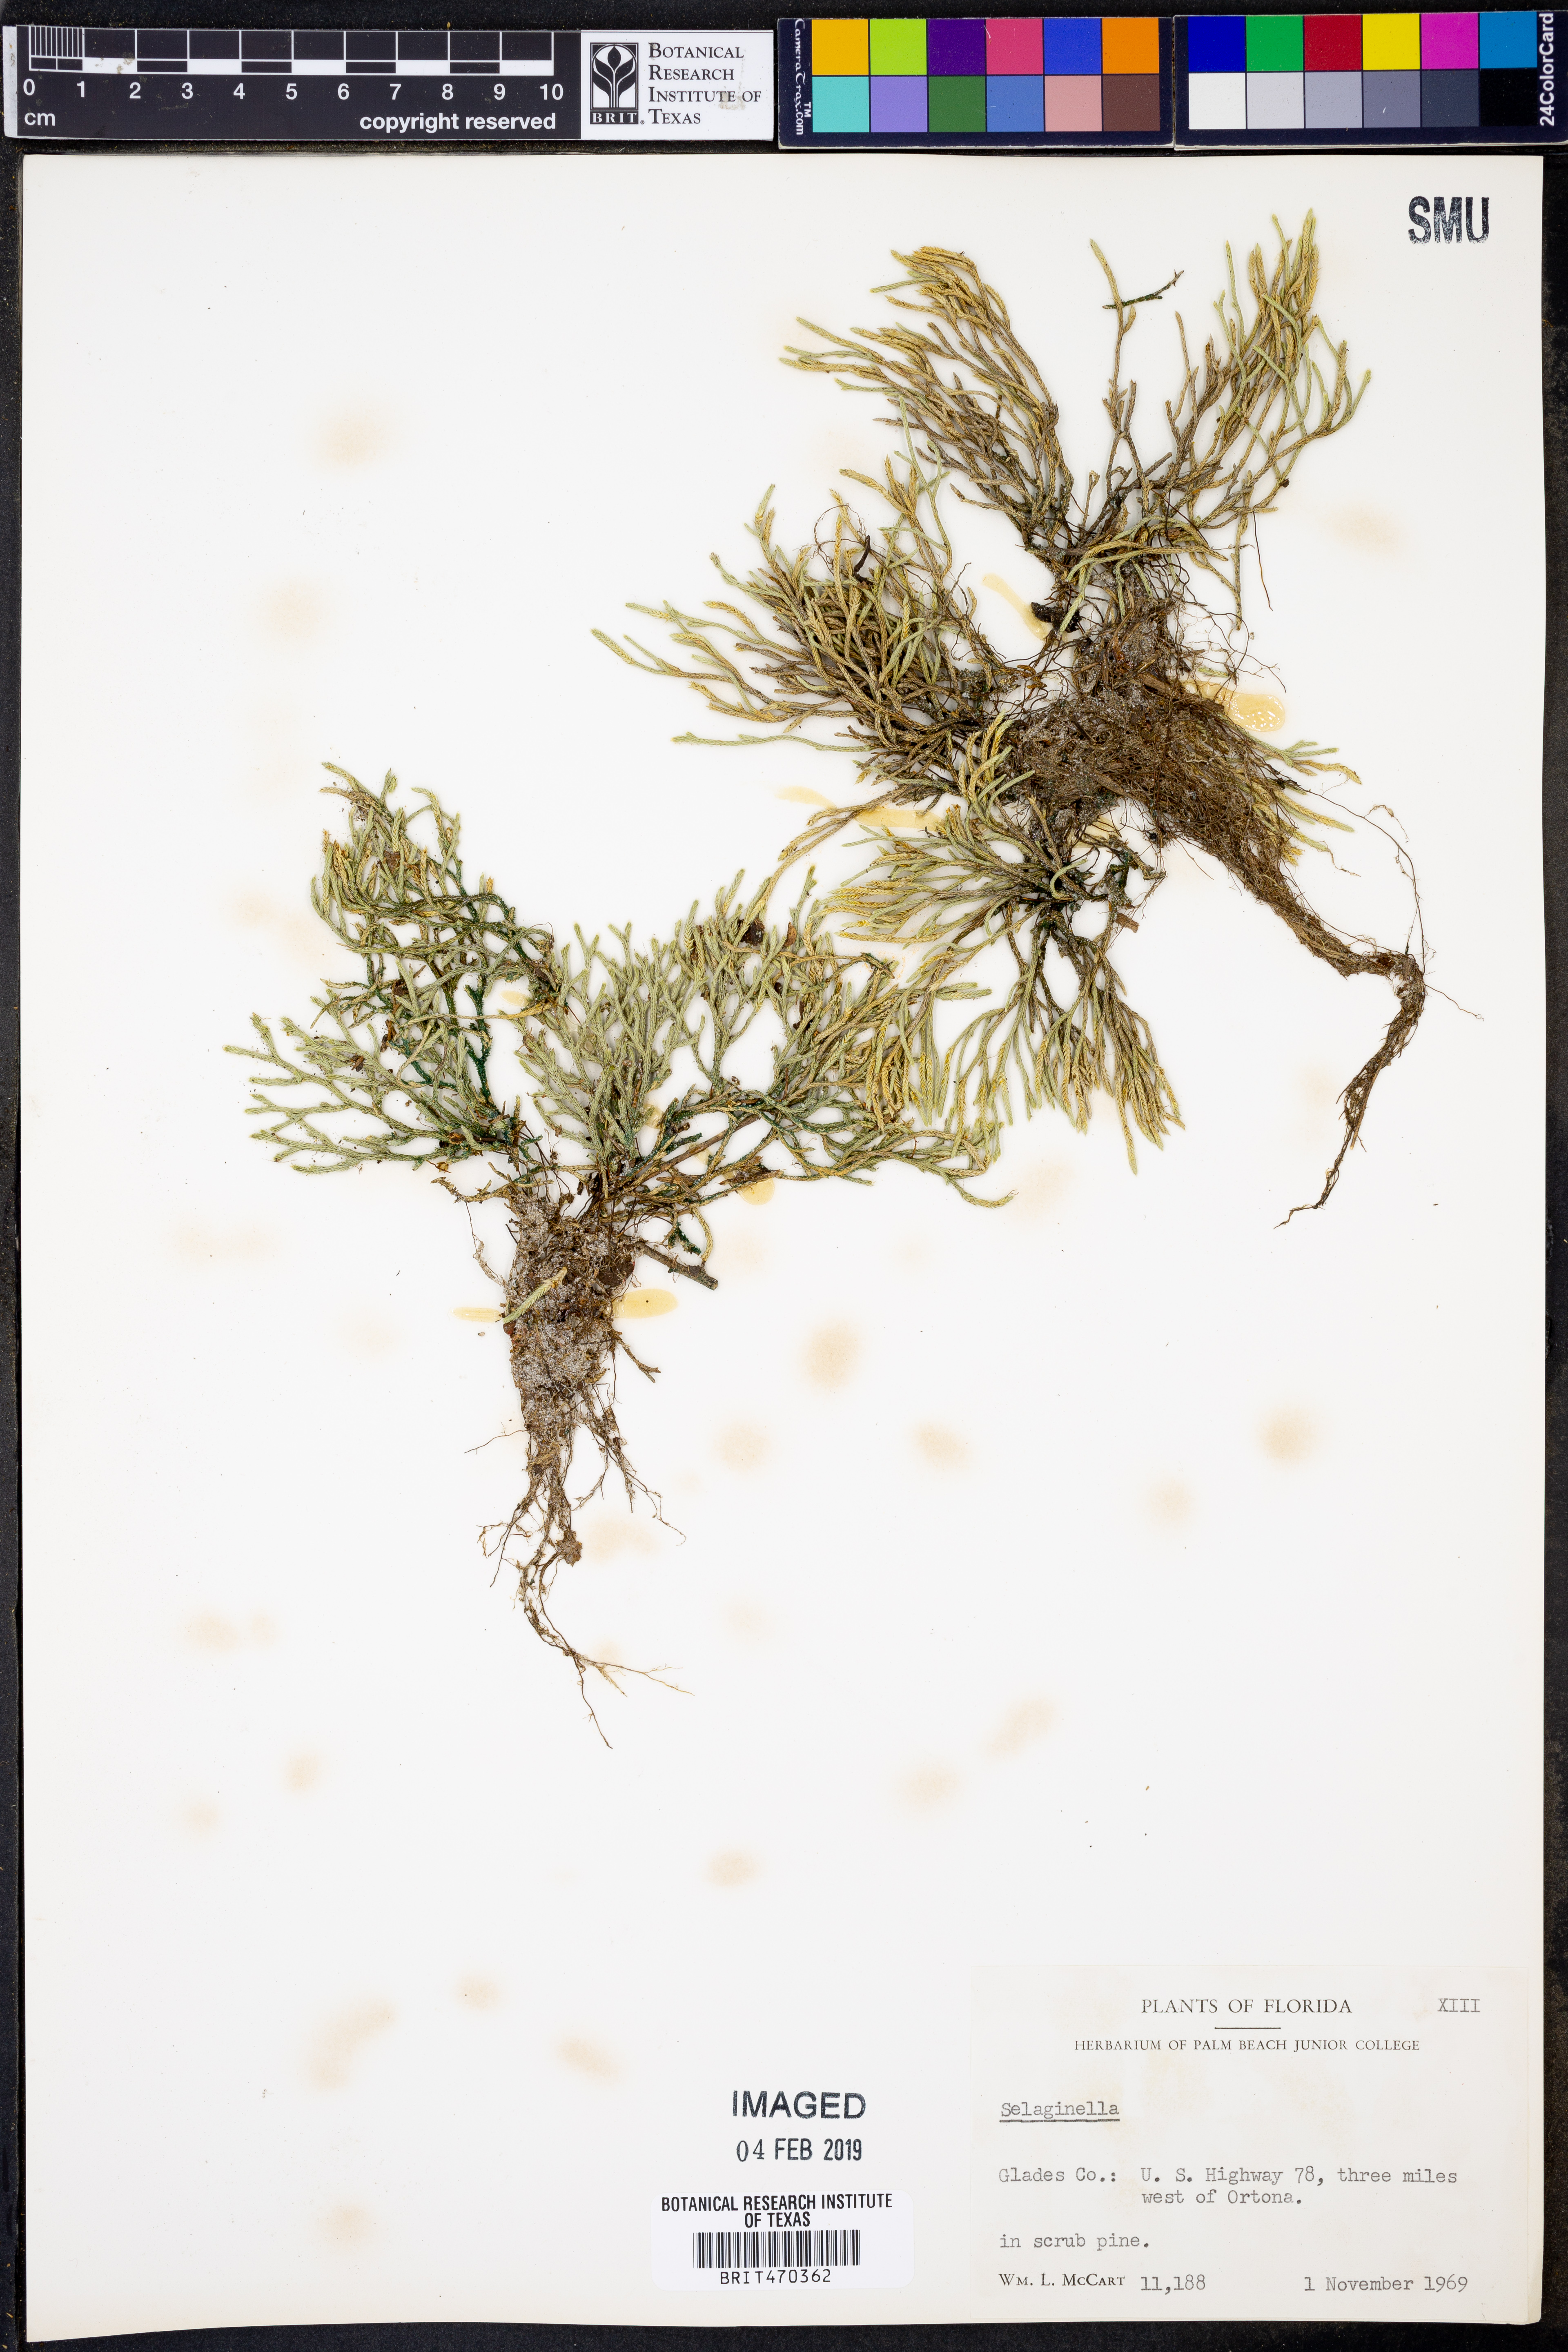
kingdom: Plantae
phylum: Tracheophyta
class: Lycopodiopsida
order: Selaginellales
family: Selaginellaceae
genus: Selaginella
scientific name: Selaginella
